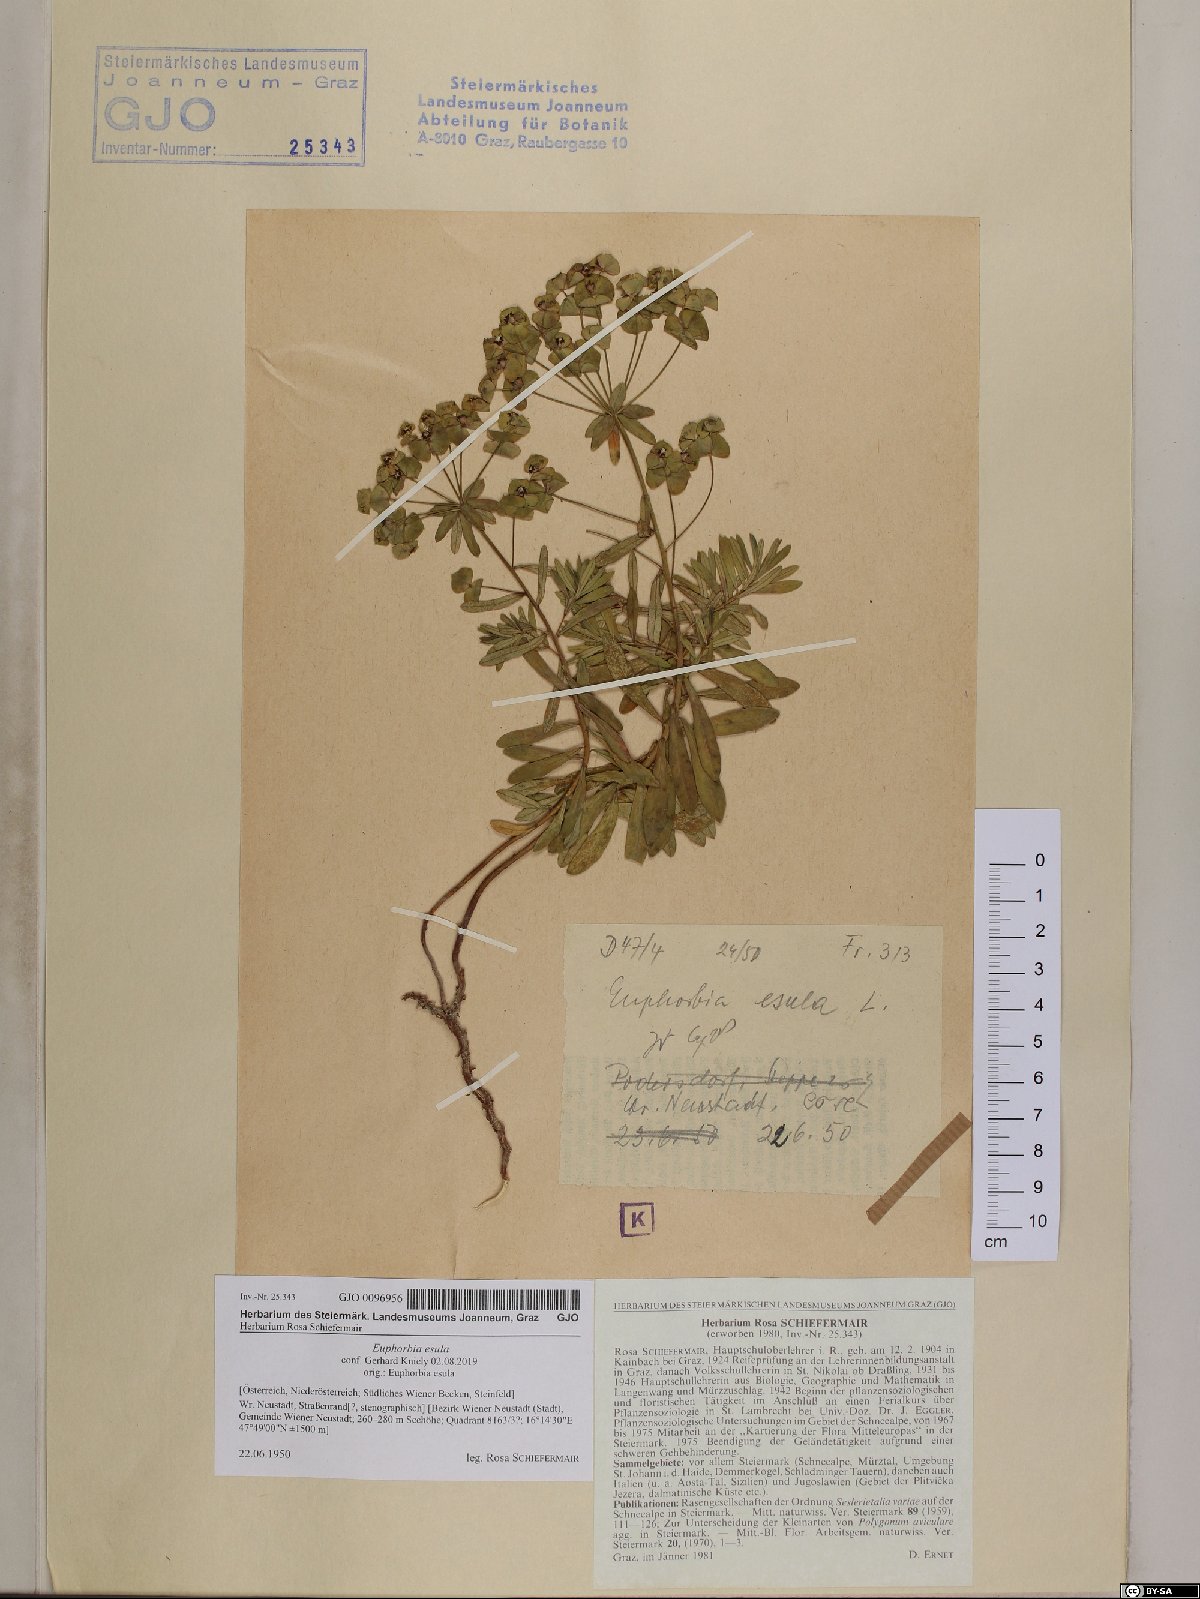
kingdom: Plantae
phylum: Tracheophyta
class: Magnoliopsida
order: Malpighiales
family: Euphorbiaceae
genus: Euphorbia
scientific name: Euphorbia esula
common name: Leafy spurge
